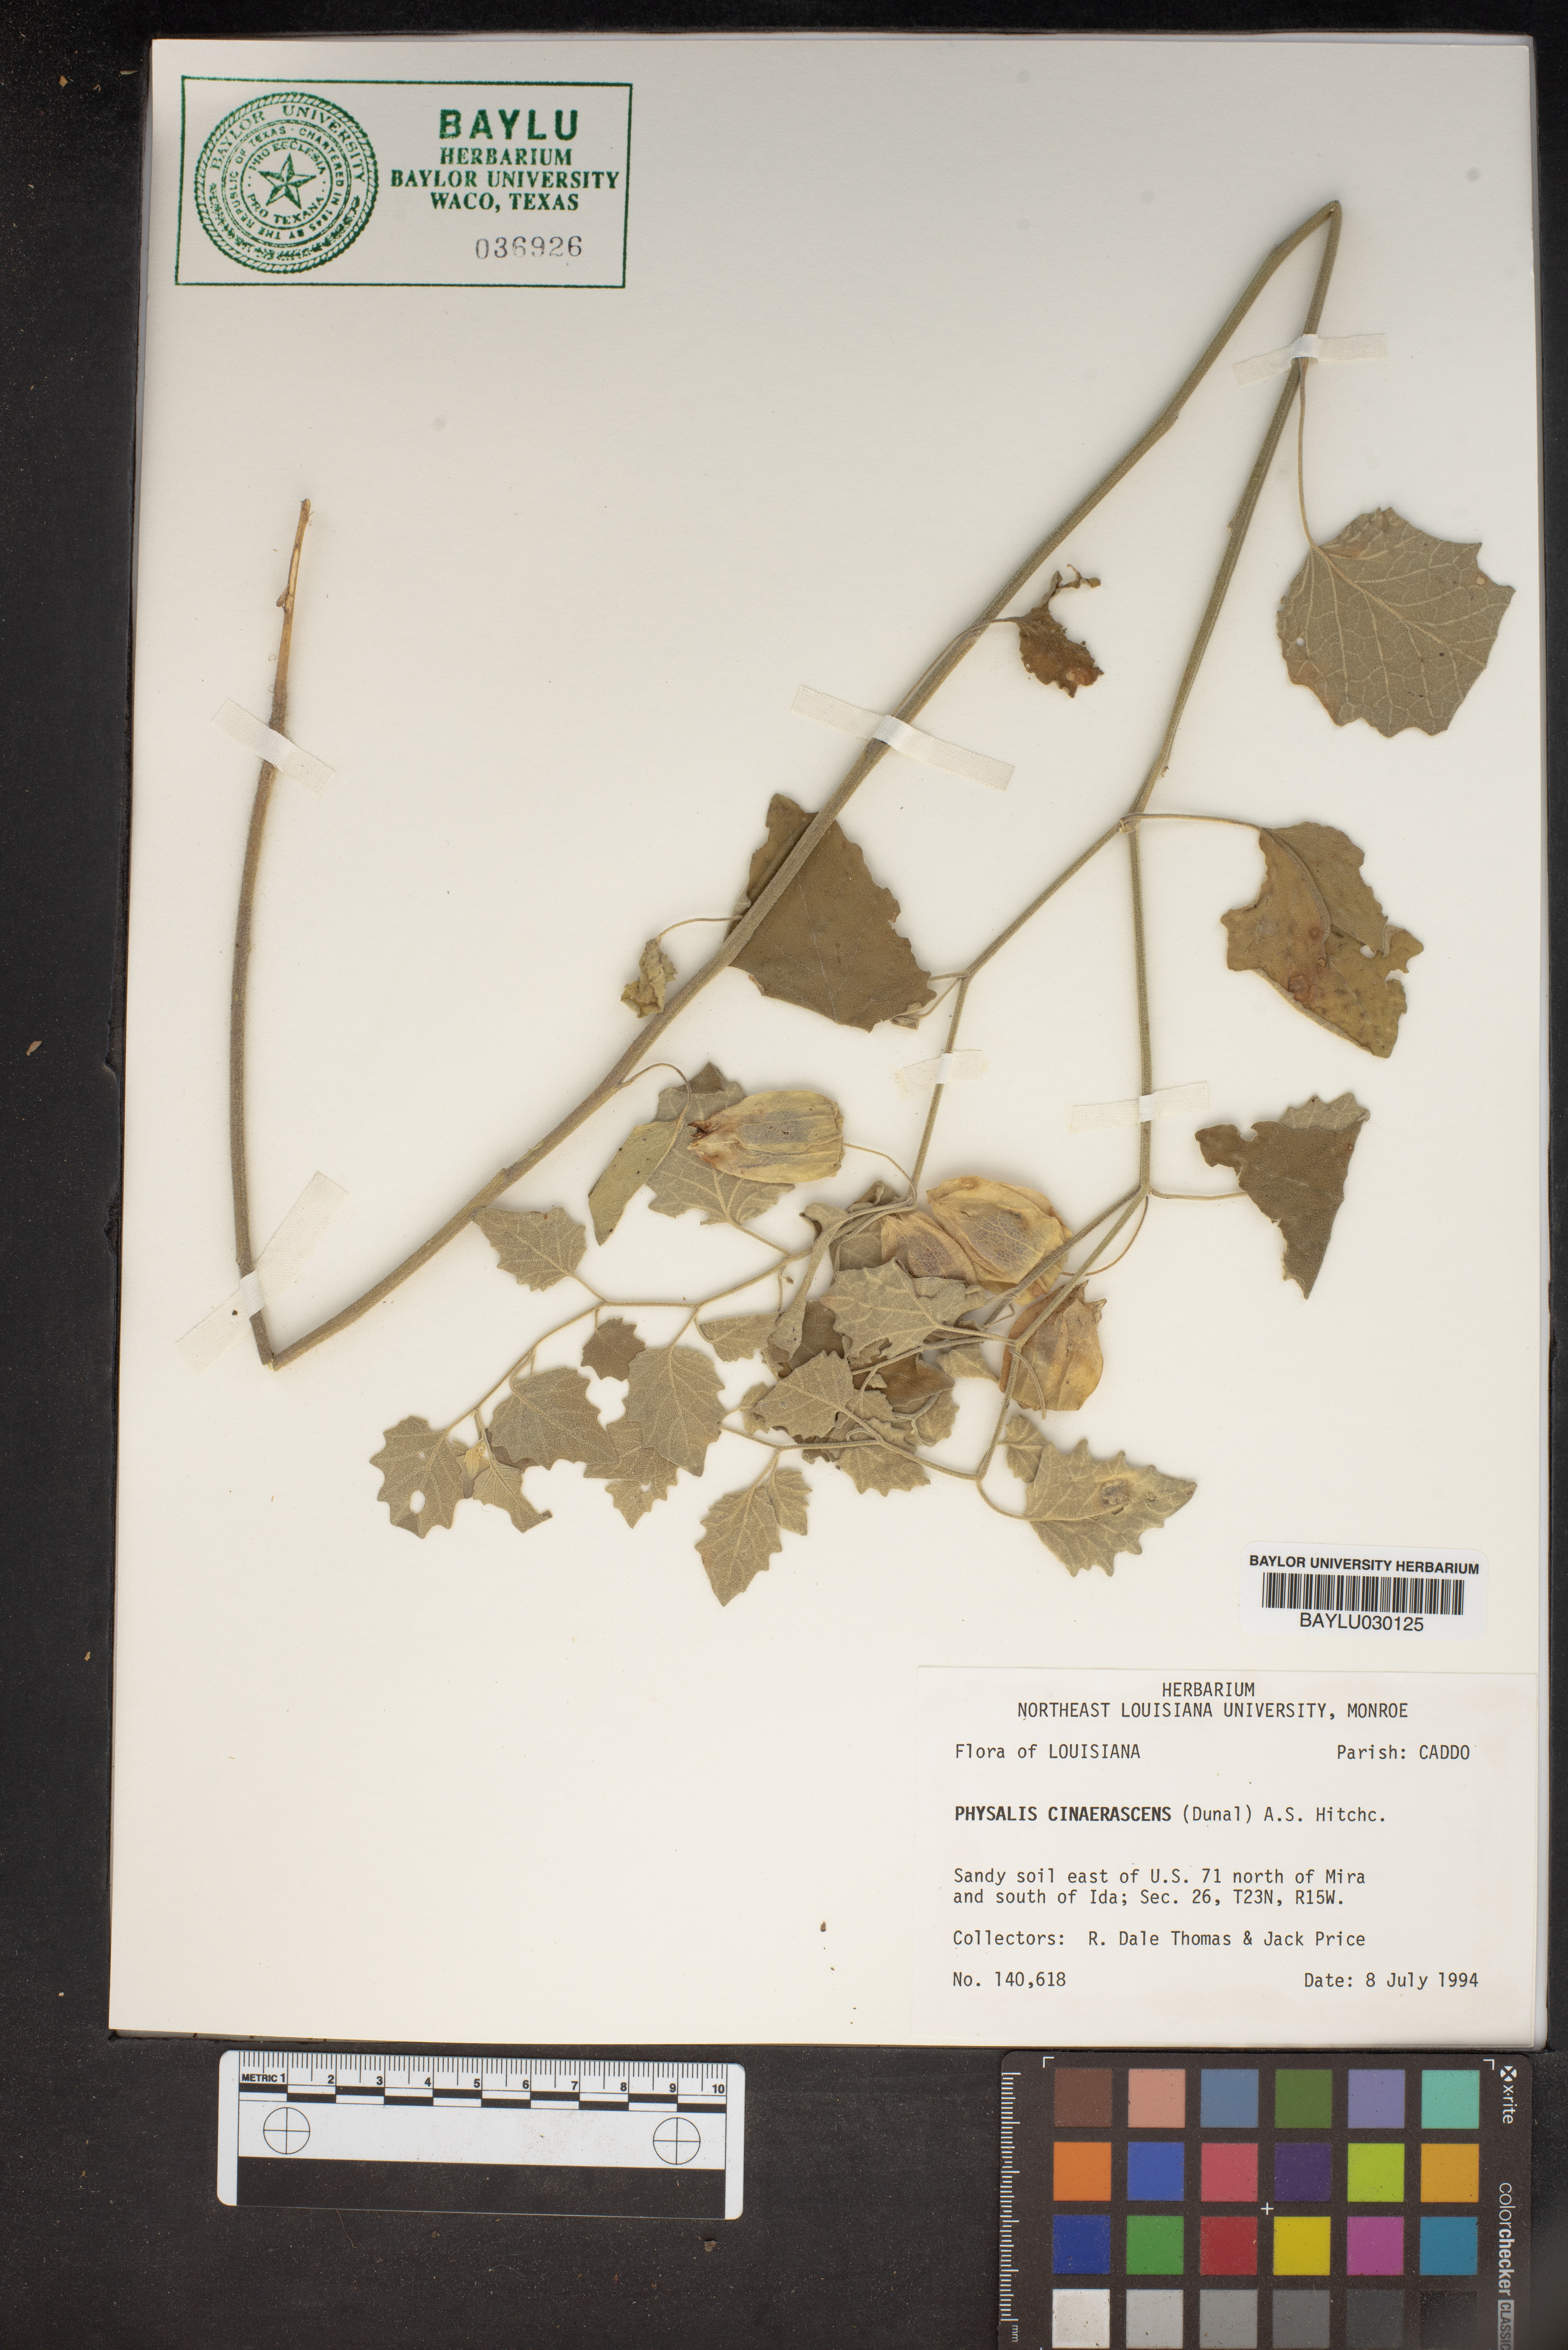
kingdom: Plantae
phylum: Tracheophyta
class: Magnoliopsida
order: Solanales
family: Solanaceae
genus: Physalis
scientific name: Physalis cinerascens
